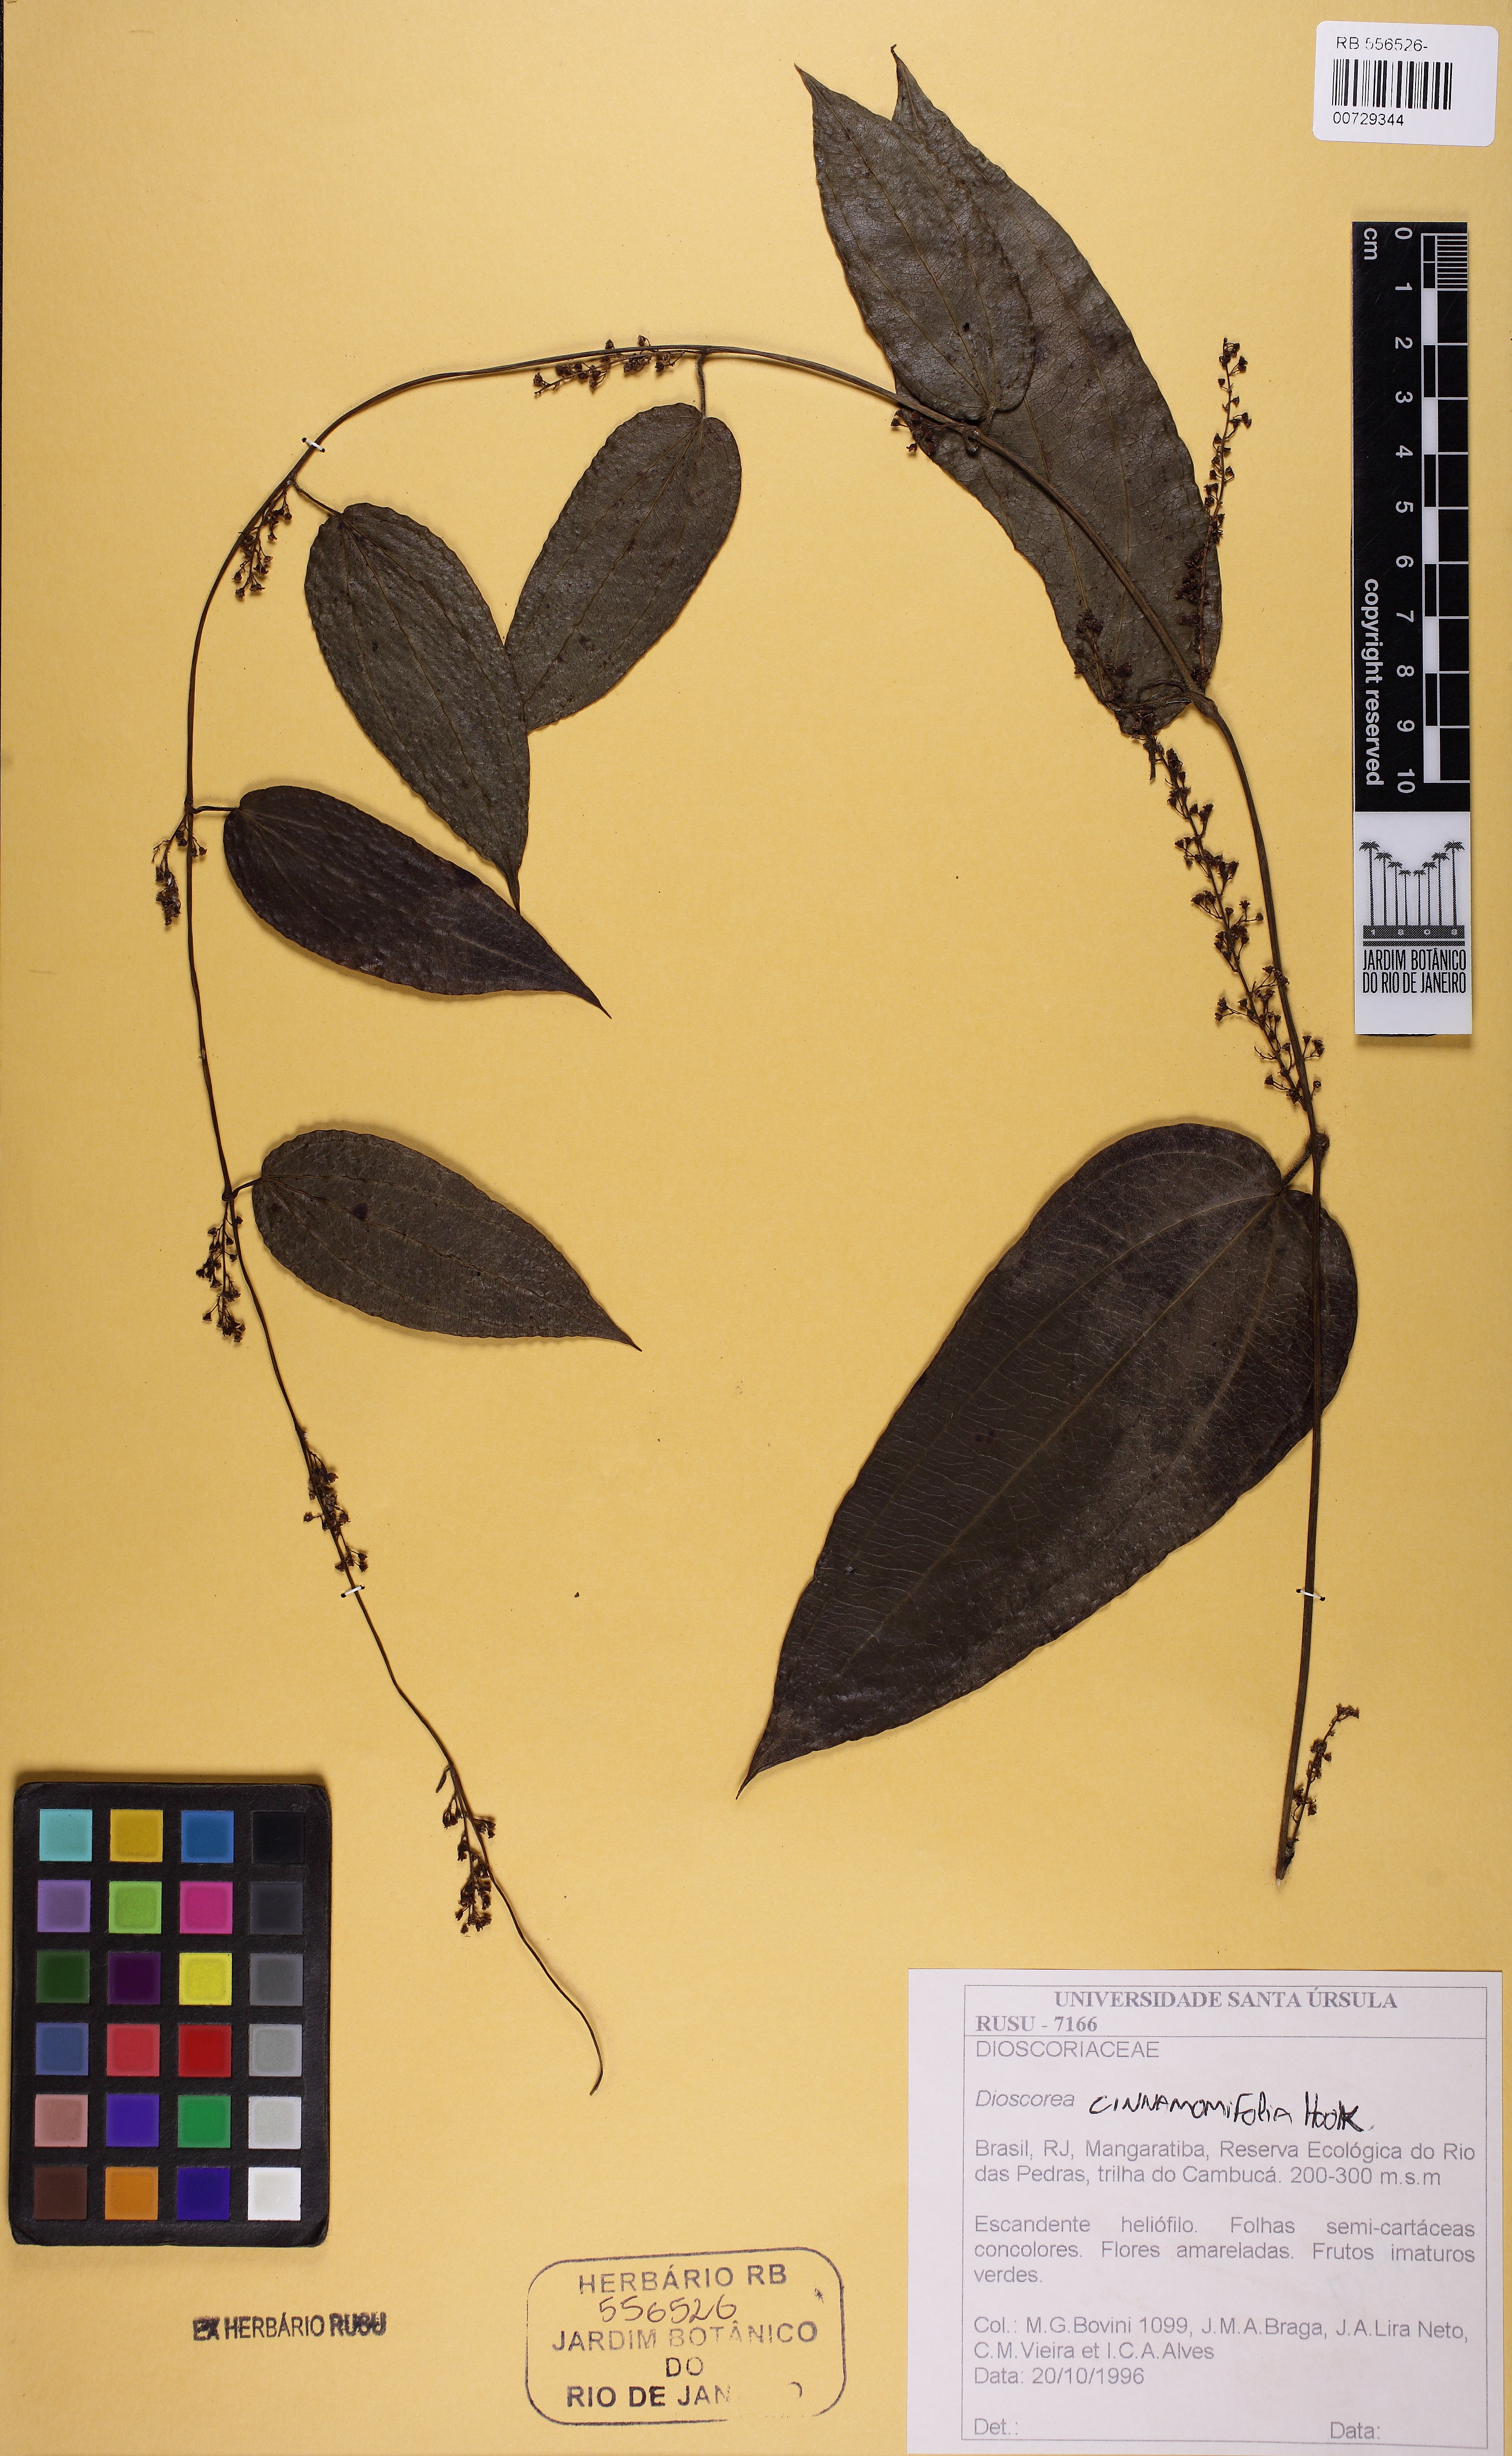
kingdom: Plantae
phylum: Tracheophyta
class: Liliopsida
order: Dioscoreales
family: Dioscoreaceae
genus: Dioscorea
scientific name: Dioscorea cinnamomifolia
